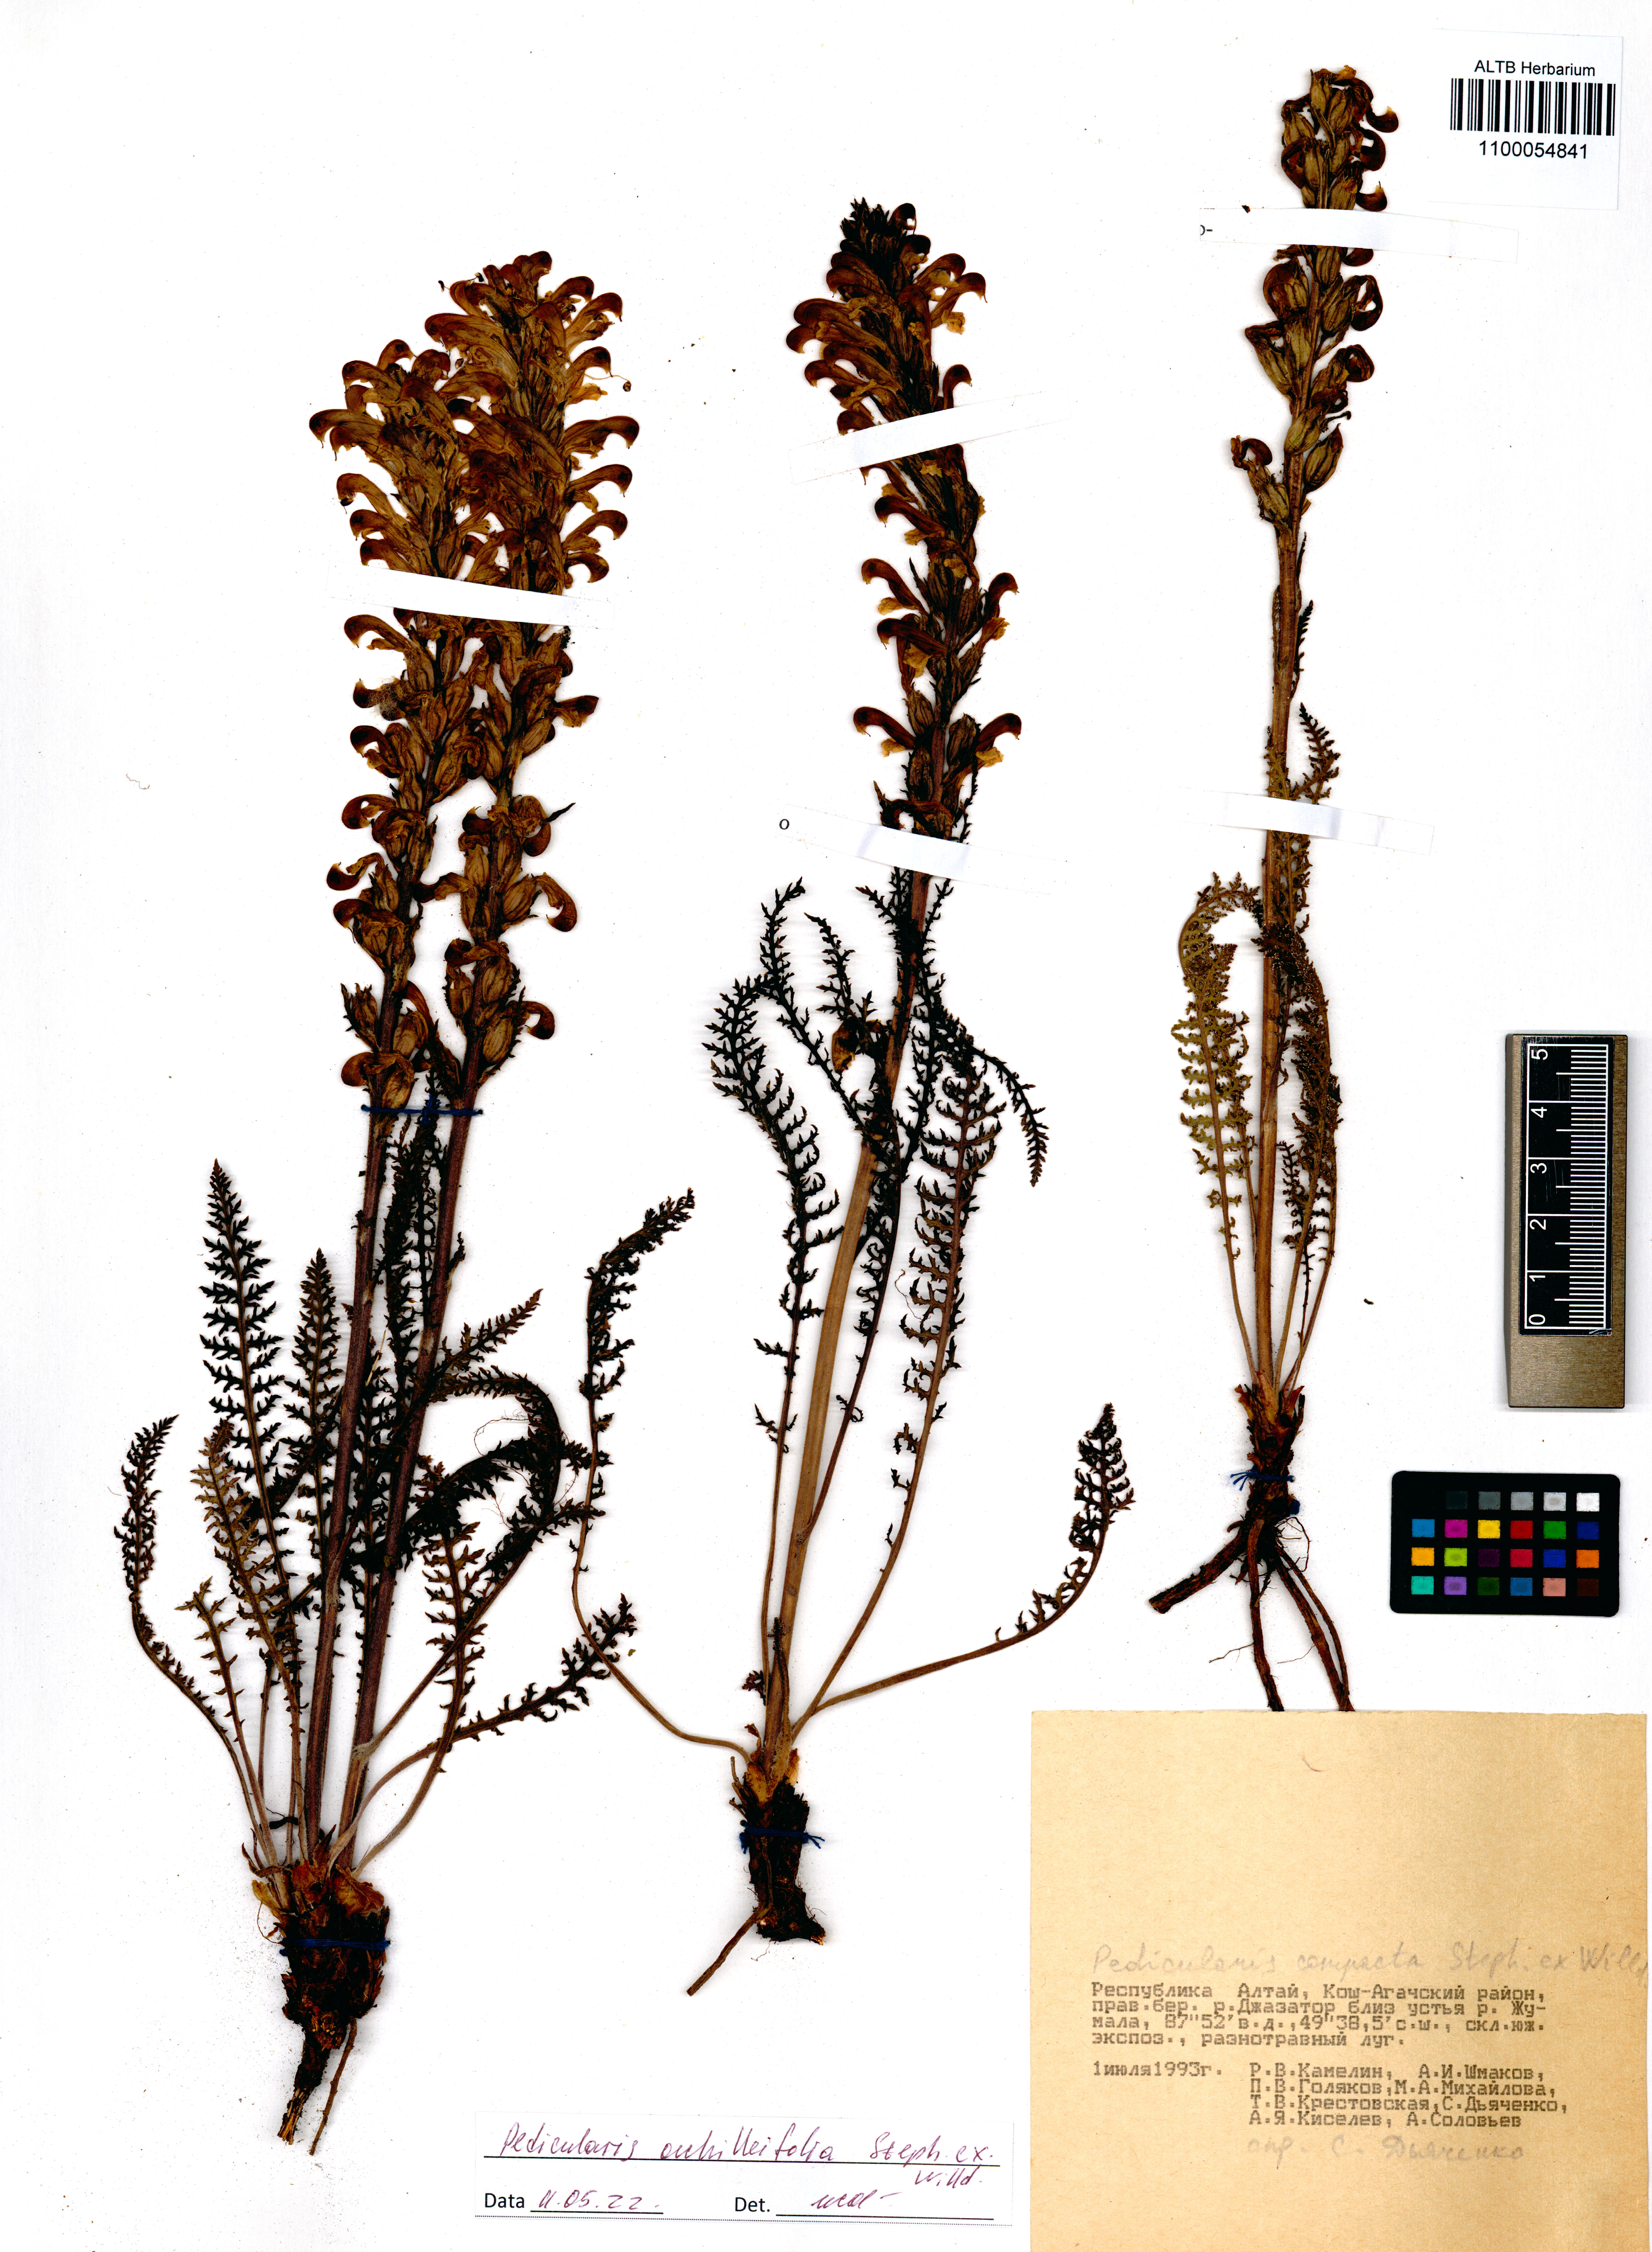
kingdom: Plantae
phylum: Tracheophyta
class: Magnoliopsida
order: Lamiales
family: Orobanchaceae
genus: Pedicularis
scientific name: Pedicularis achilleifolia
